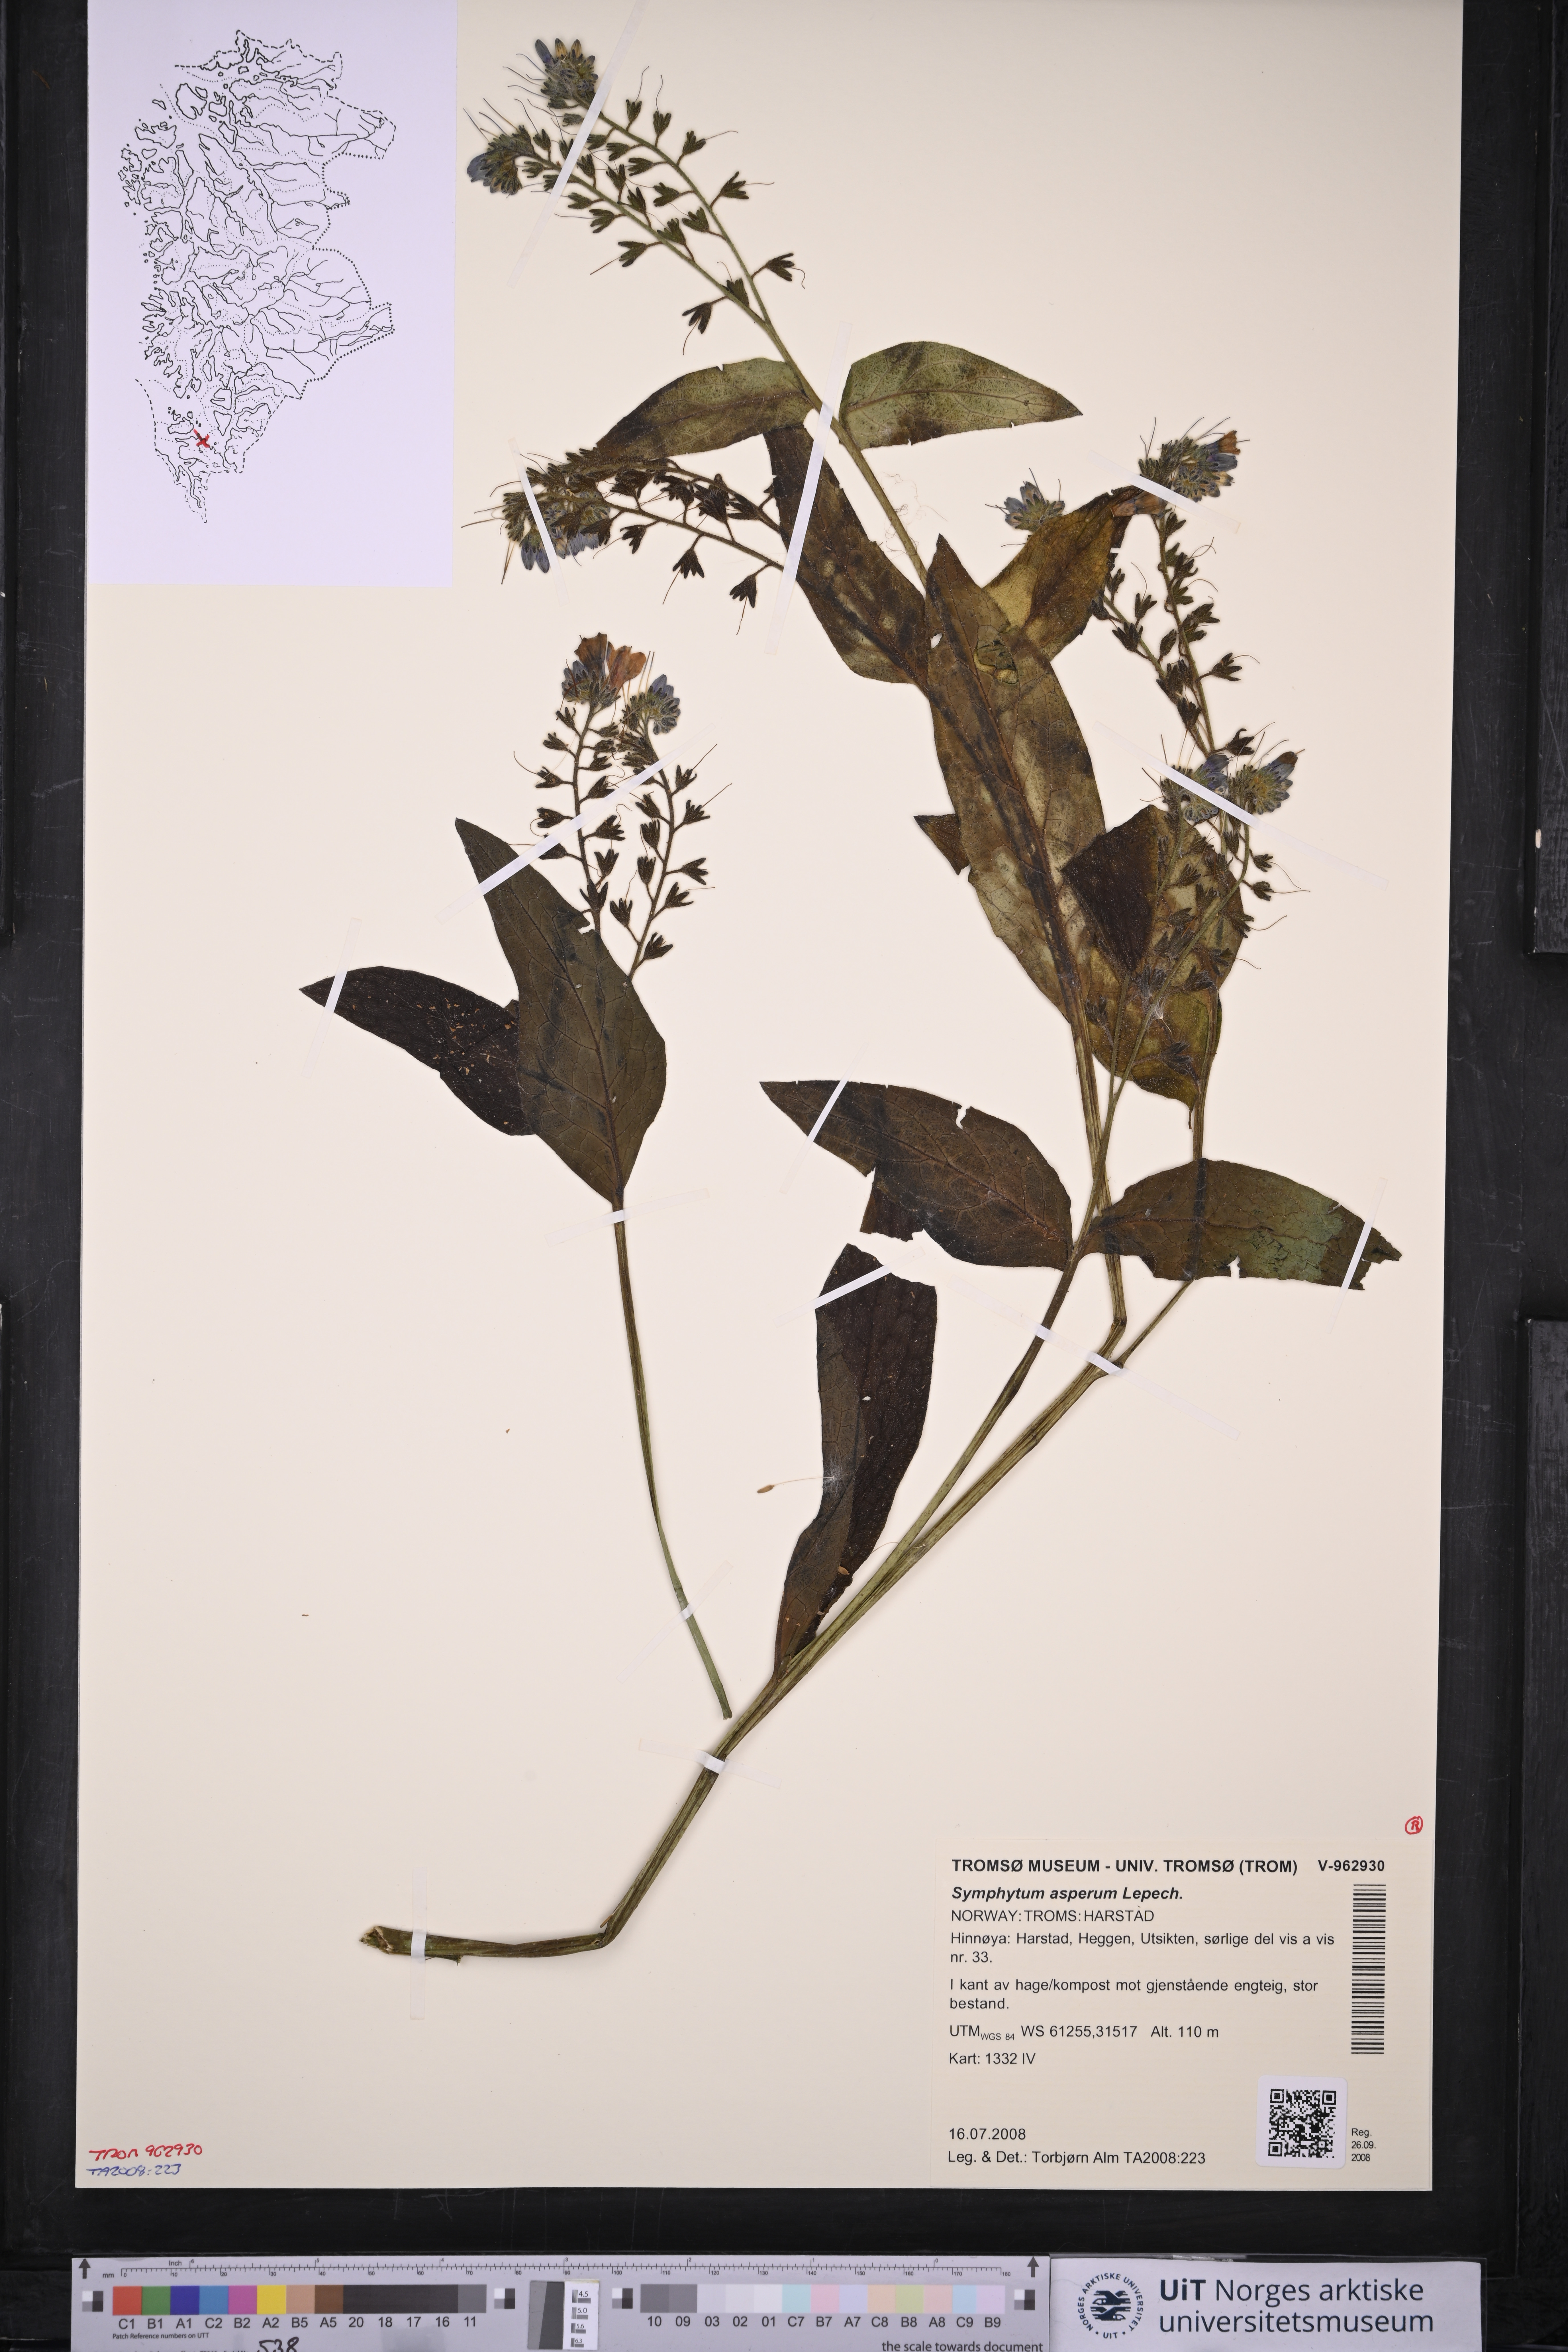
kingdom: Plantae
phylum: Tracheophyta
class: Magnoliopsida
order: Boraginales
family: Boraginaceae
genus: Symphytum
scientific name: Symphytum asperum
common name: Prickly comfrey
